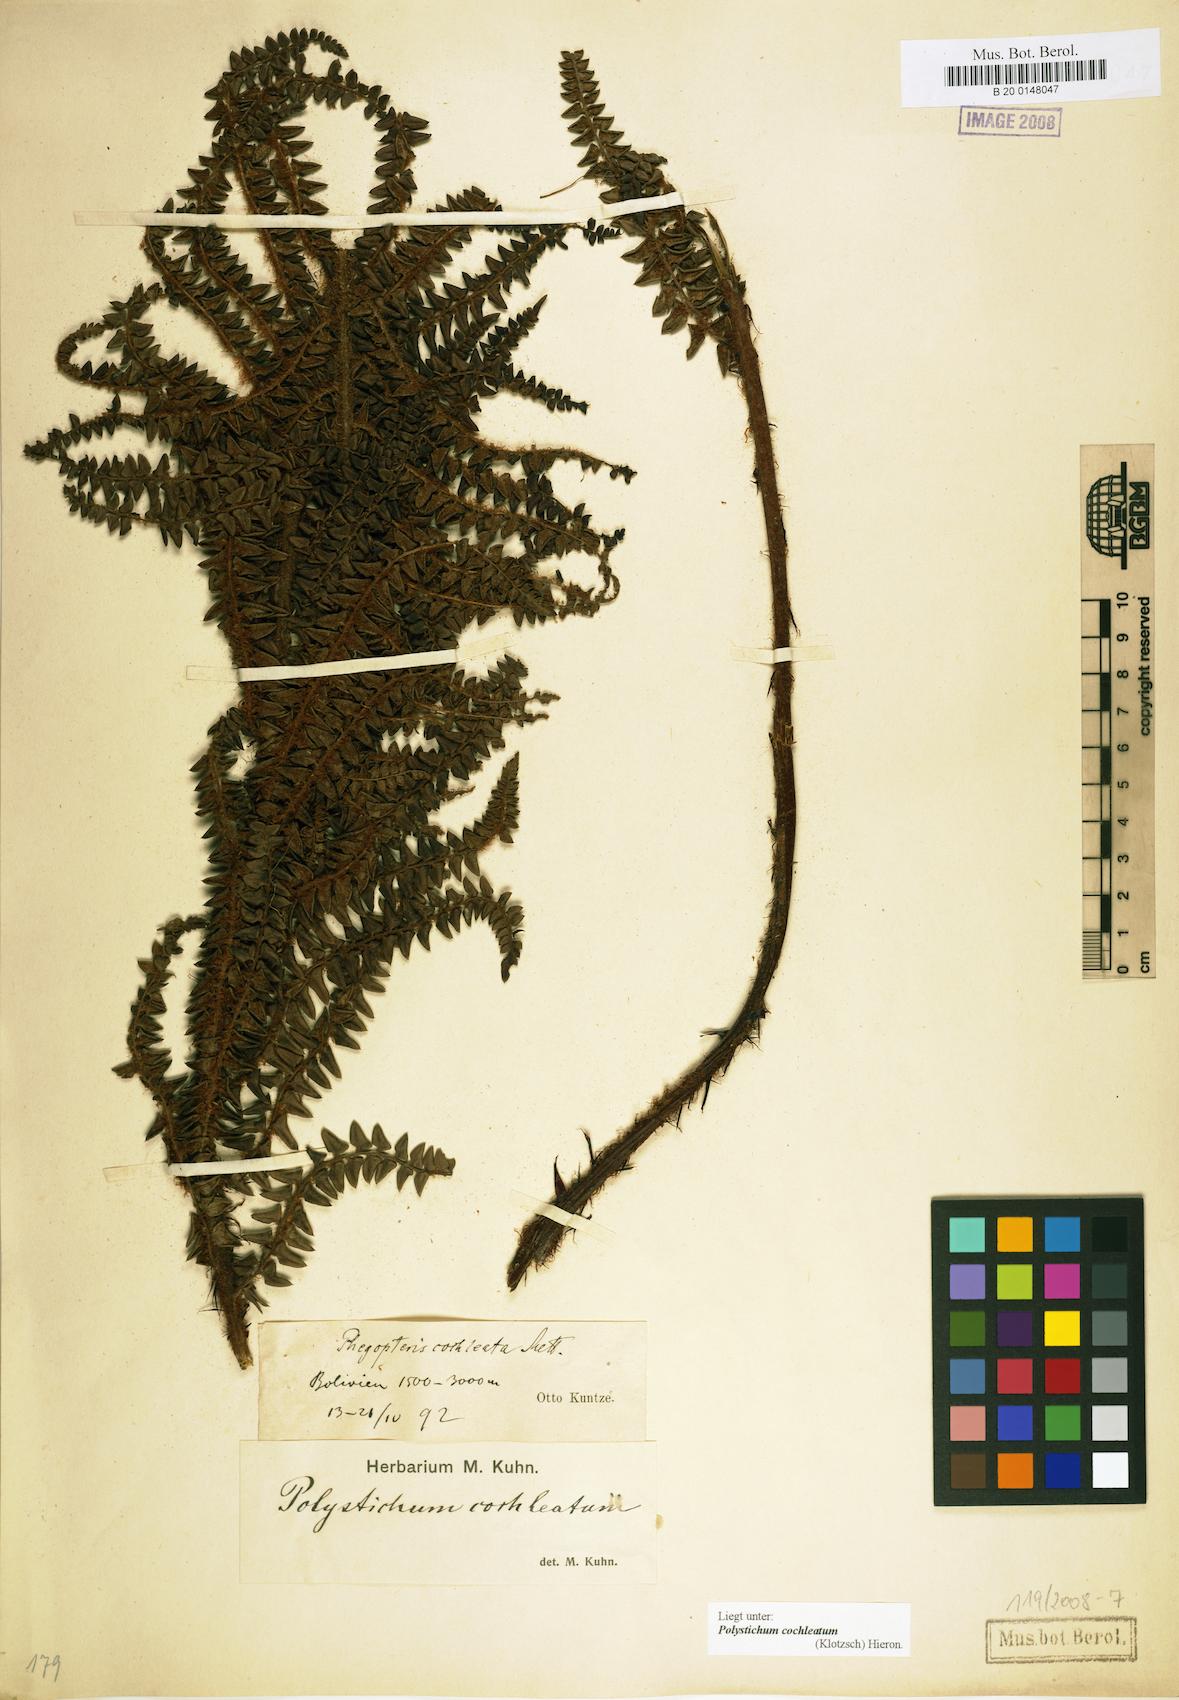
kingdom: Plantae
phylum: Tracheophyta
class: Polypodiopsida
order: Polypodiales
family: Dryopteridaceae
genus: Polystichum
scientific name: Polystichum cochleatum
